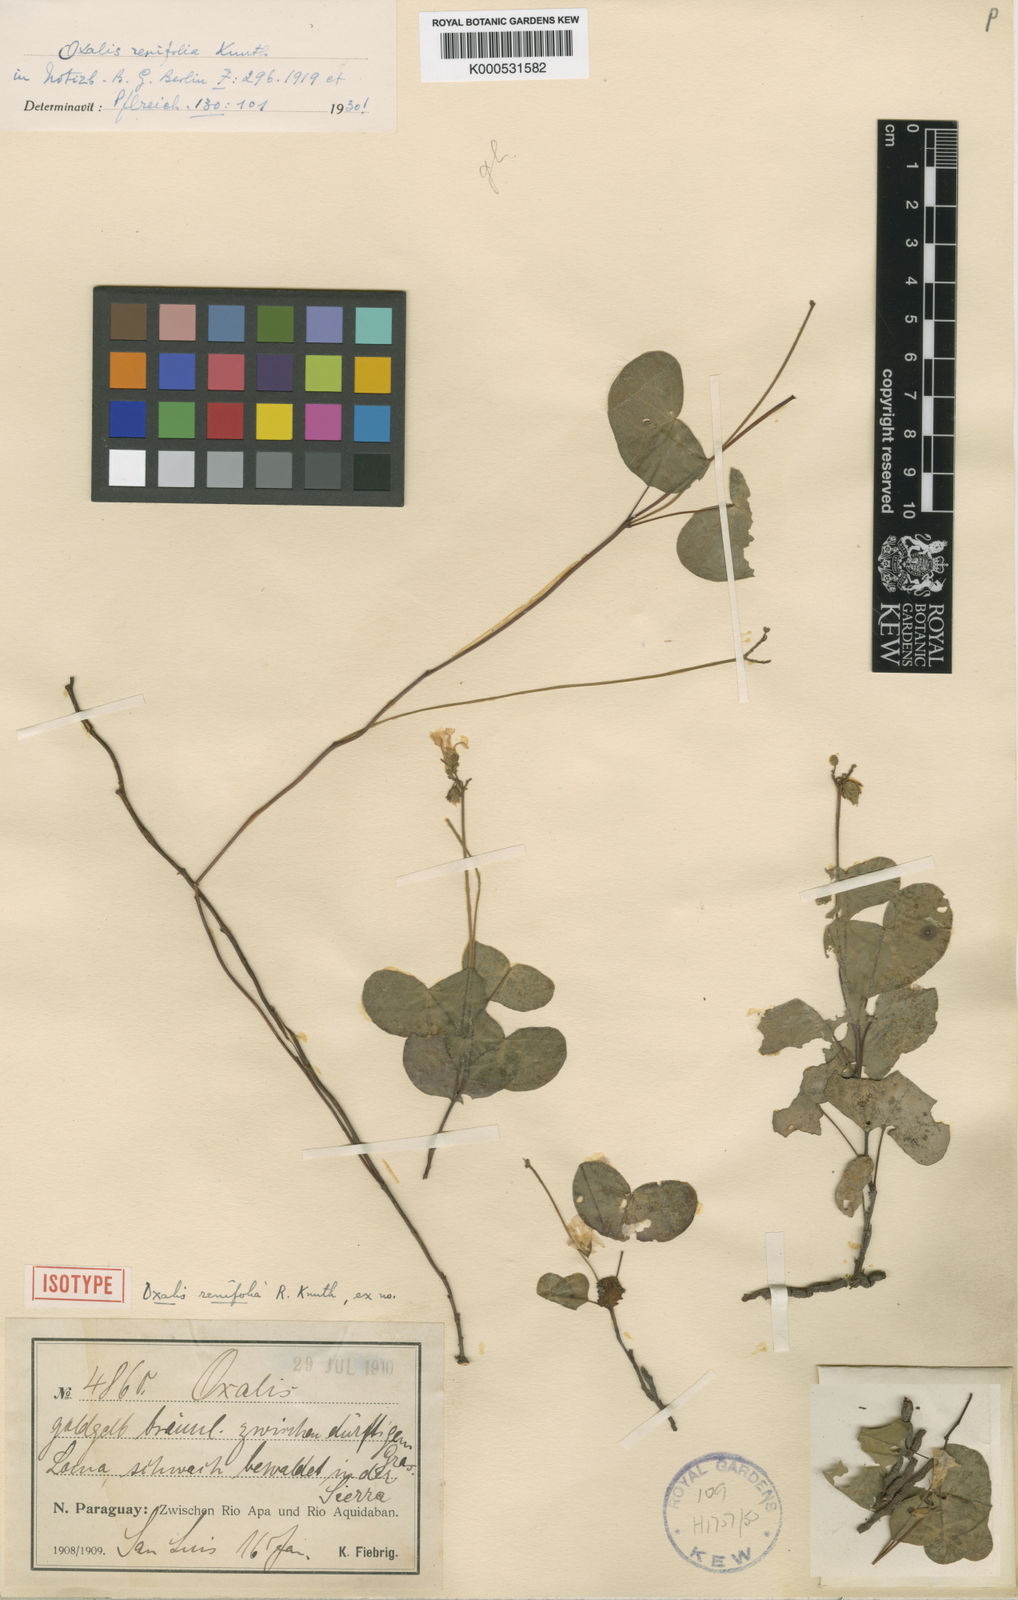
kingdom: Plantae
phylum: Tracheophyta
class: Magnoliopsida
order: Oxalidales
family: Oxalidaceae
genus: Oxalis
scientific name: Oxalis renifolia
